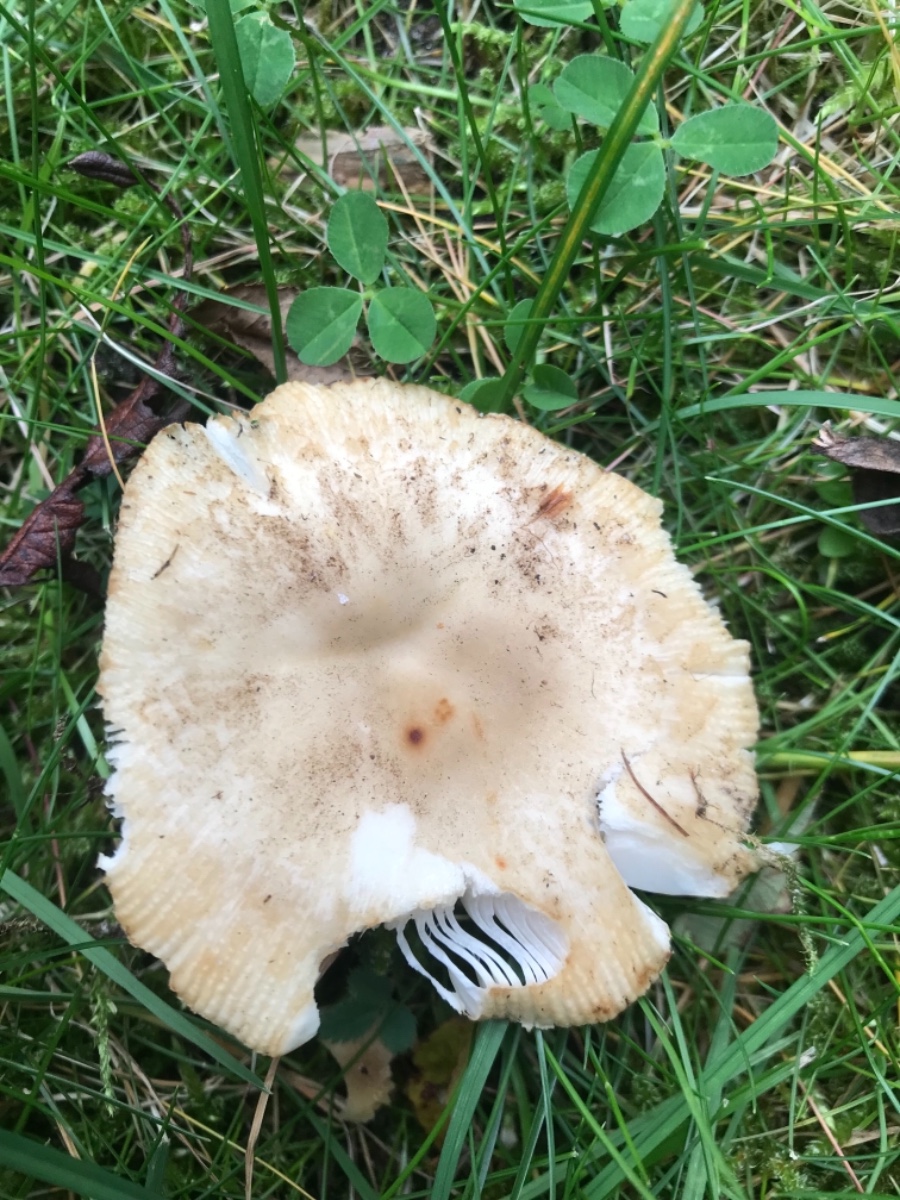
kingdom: Fungi
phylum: Basidiomycota
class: Agaricomycetes
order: Russulales
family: Russulaceae
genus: Russula
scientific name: Russula recondita
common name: mild kam-skørhat
